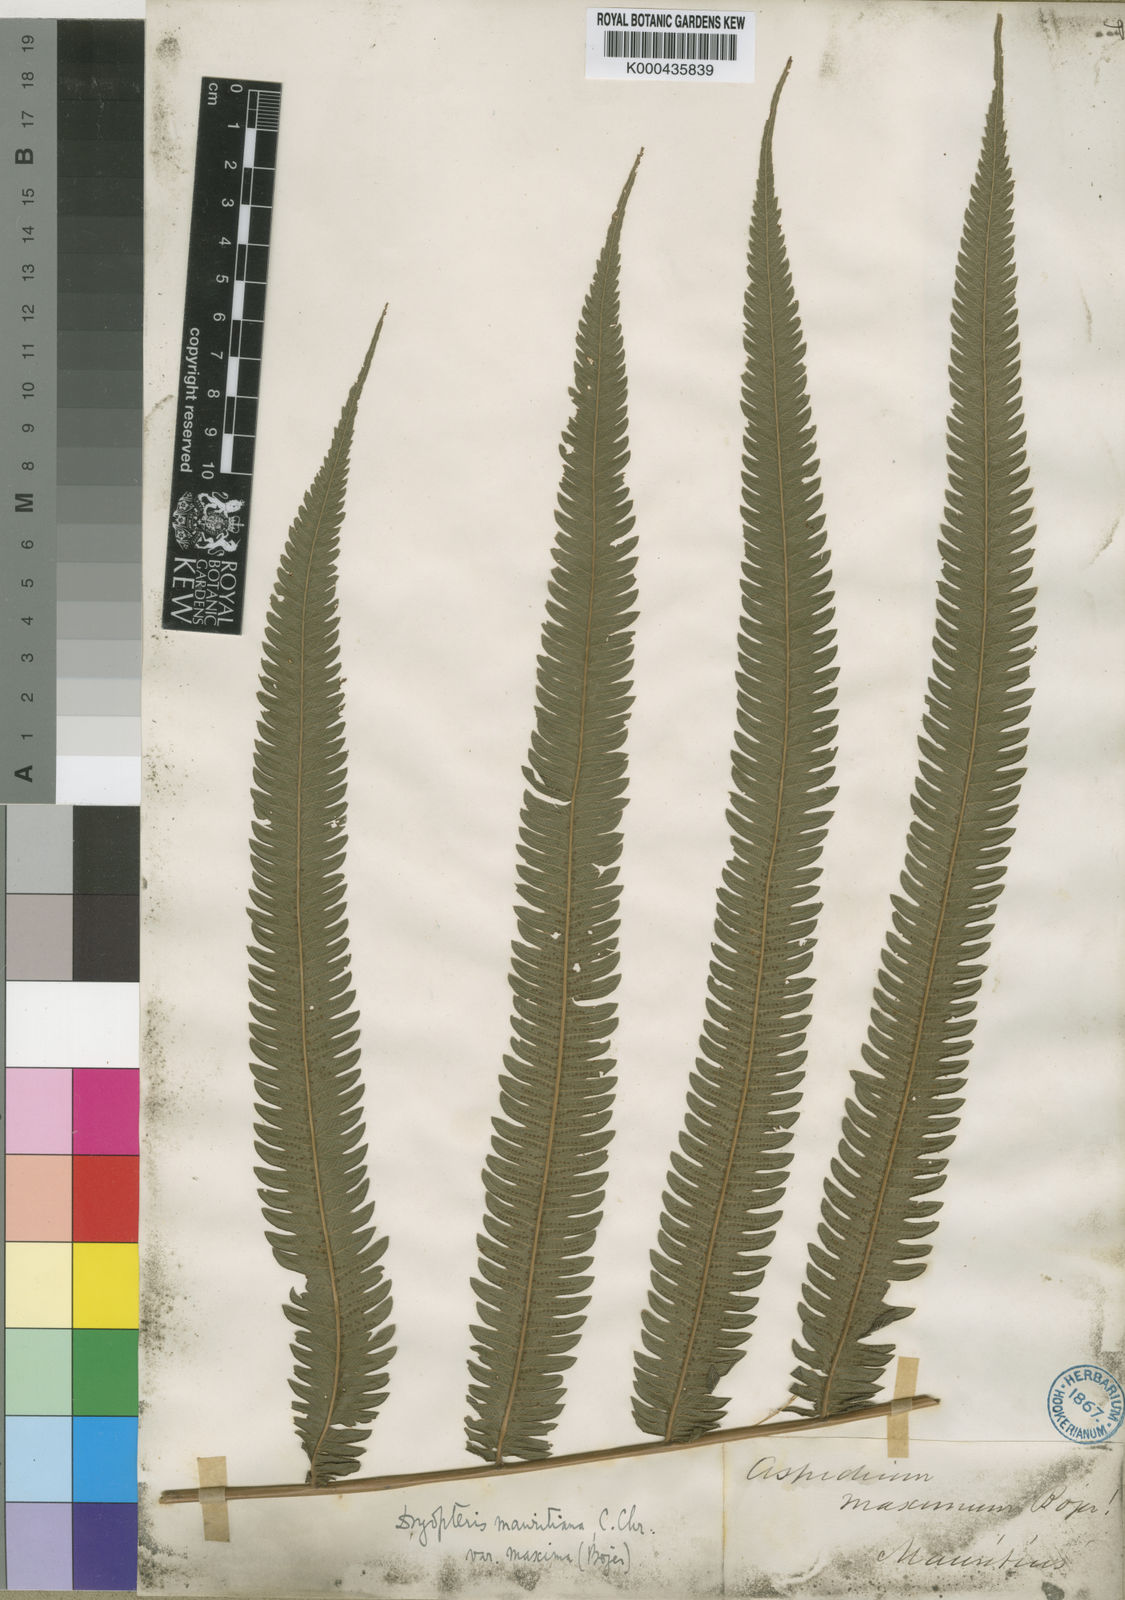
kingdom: Plantae
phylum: Tracheophyta
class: Polypodiopsida
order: Polypodiales
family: Thelypteridaceae
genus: Sphaerostephanos
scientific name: Sphaerostephanos elatus
